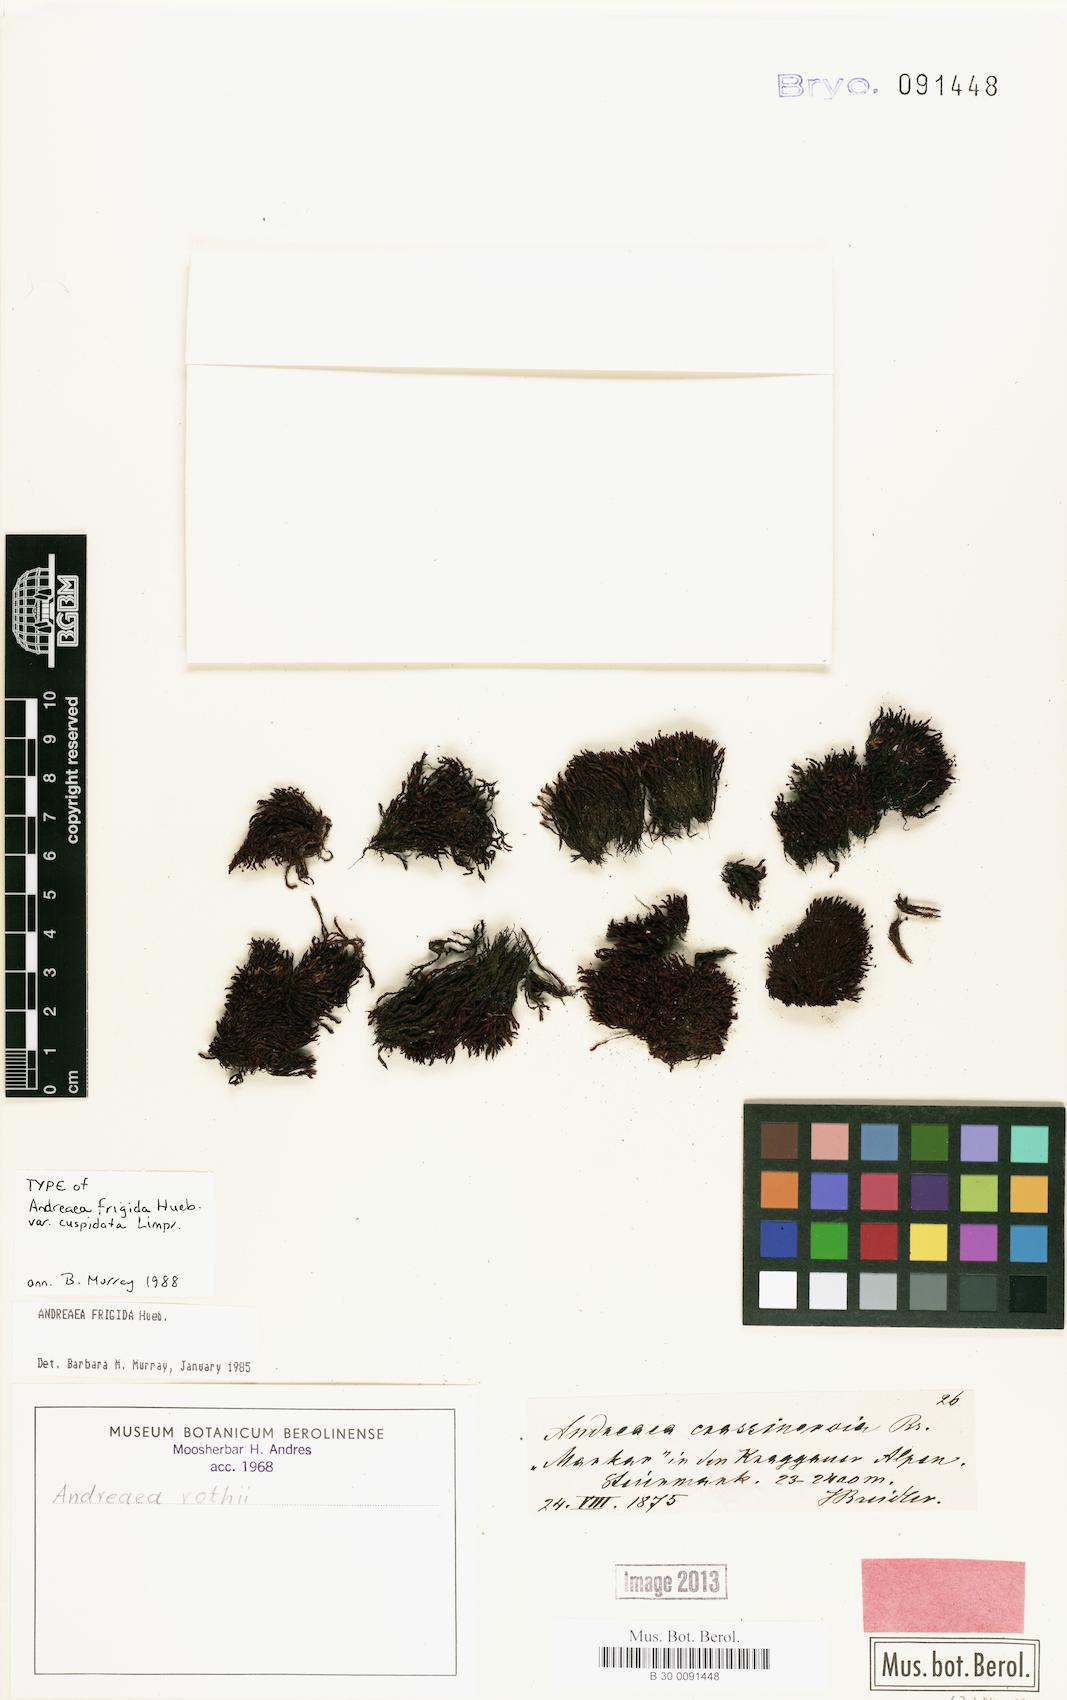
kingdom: Plantae
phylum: Bryophyta
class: Andreaeopsida
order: Andreaeales
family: Andreaeaceae
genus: Andreaea
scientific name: Andreaea rothii
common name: Dusky rock moss
